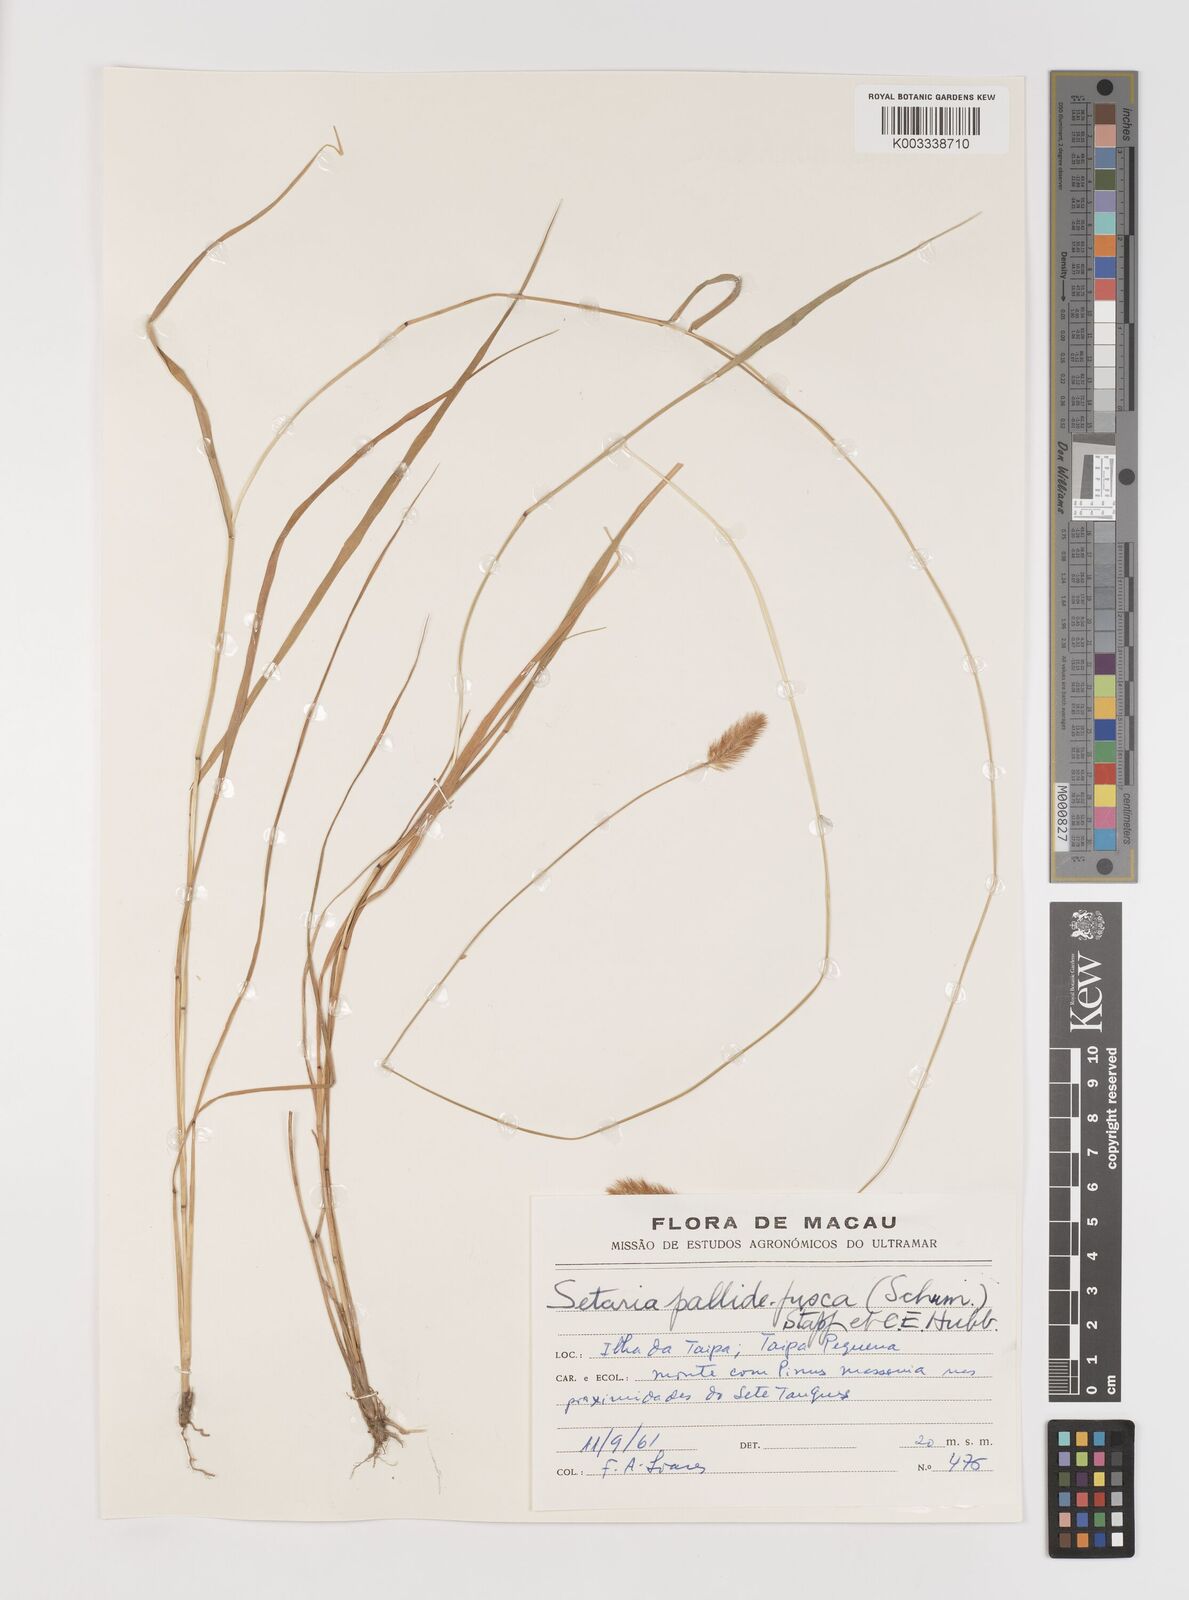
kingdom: Plantae
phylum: Tracheophyta
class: Liliopsida
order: Poales
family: Poaceae
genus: Setaria
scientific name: Setaria parviflora
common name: Knotroot bristle-grass
